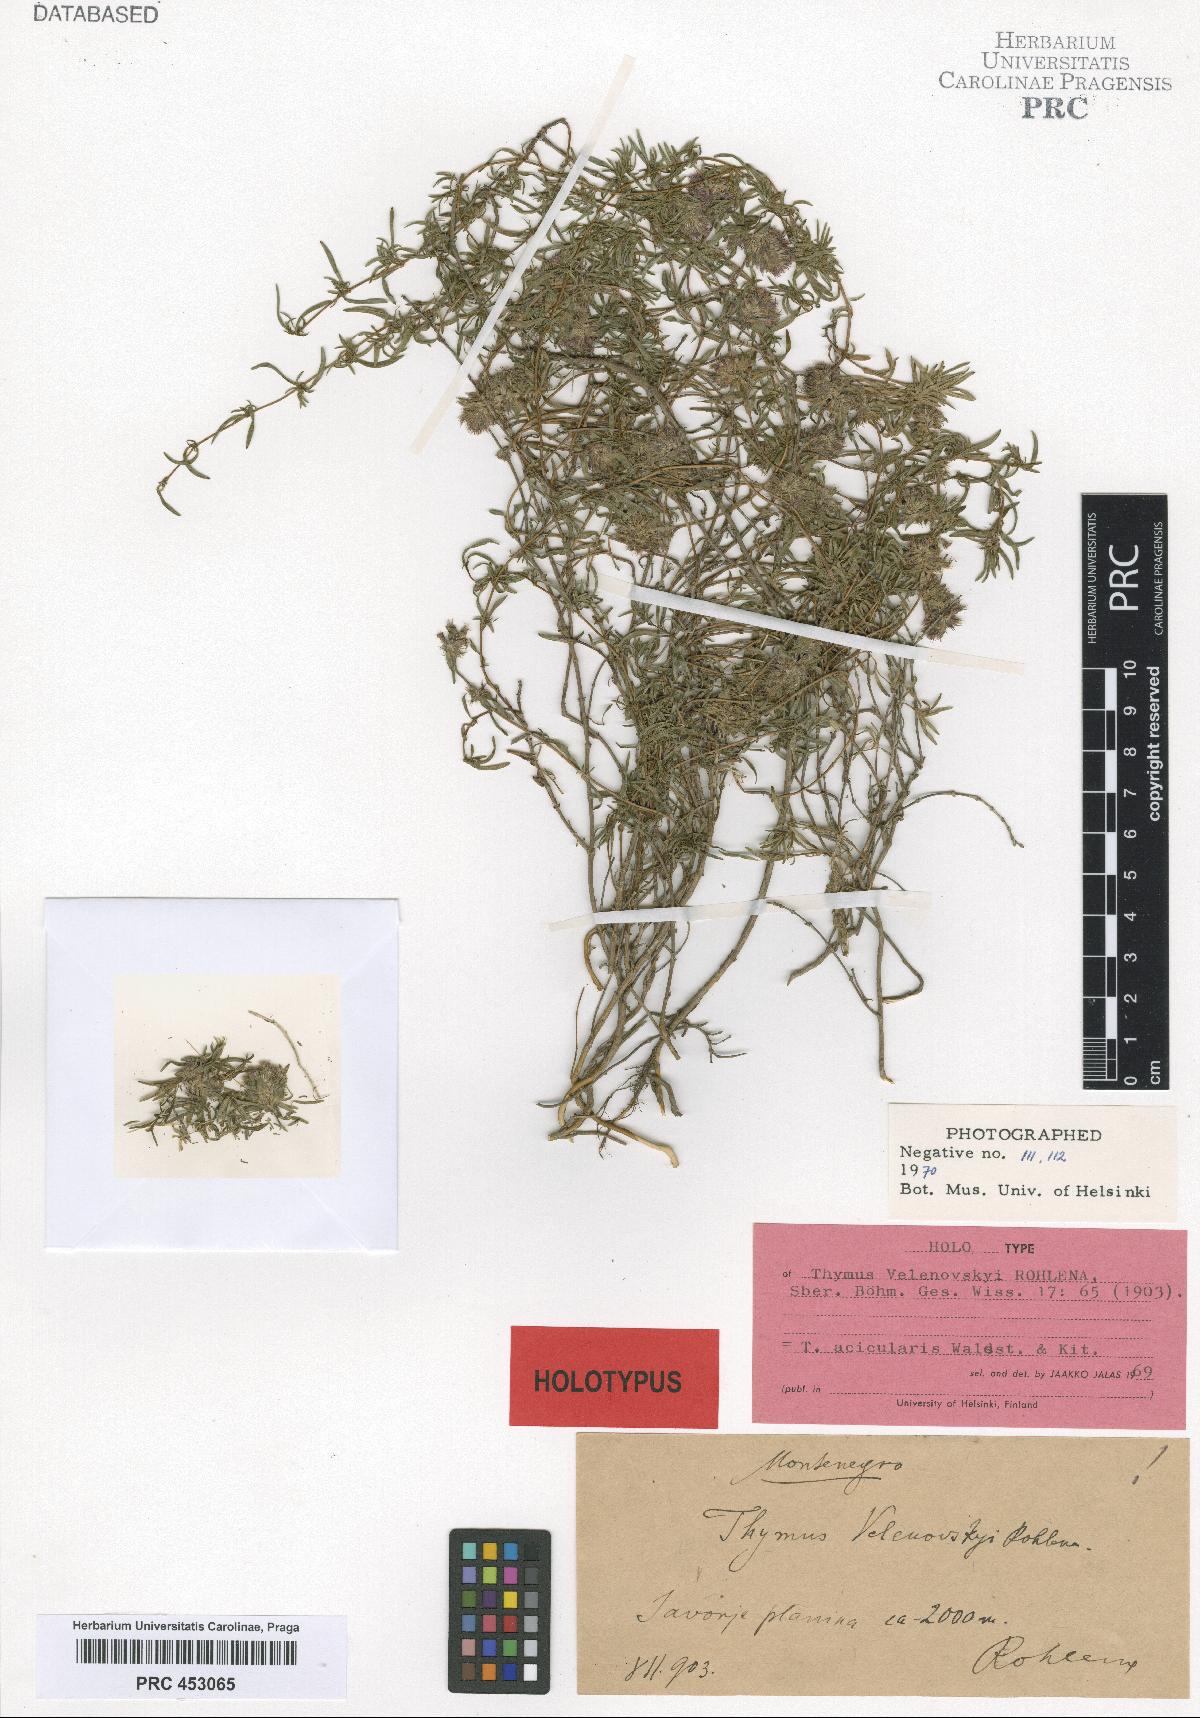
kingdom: Plantae
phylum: Tracheophyta
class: Magnoliopsida
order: Lamiales
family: Lamiaceae
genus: Thymus
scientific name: Thymus velenovskyi
